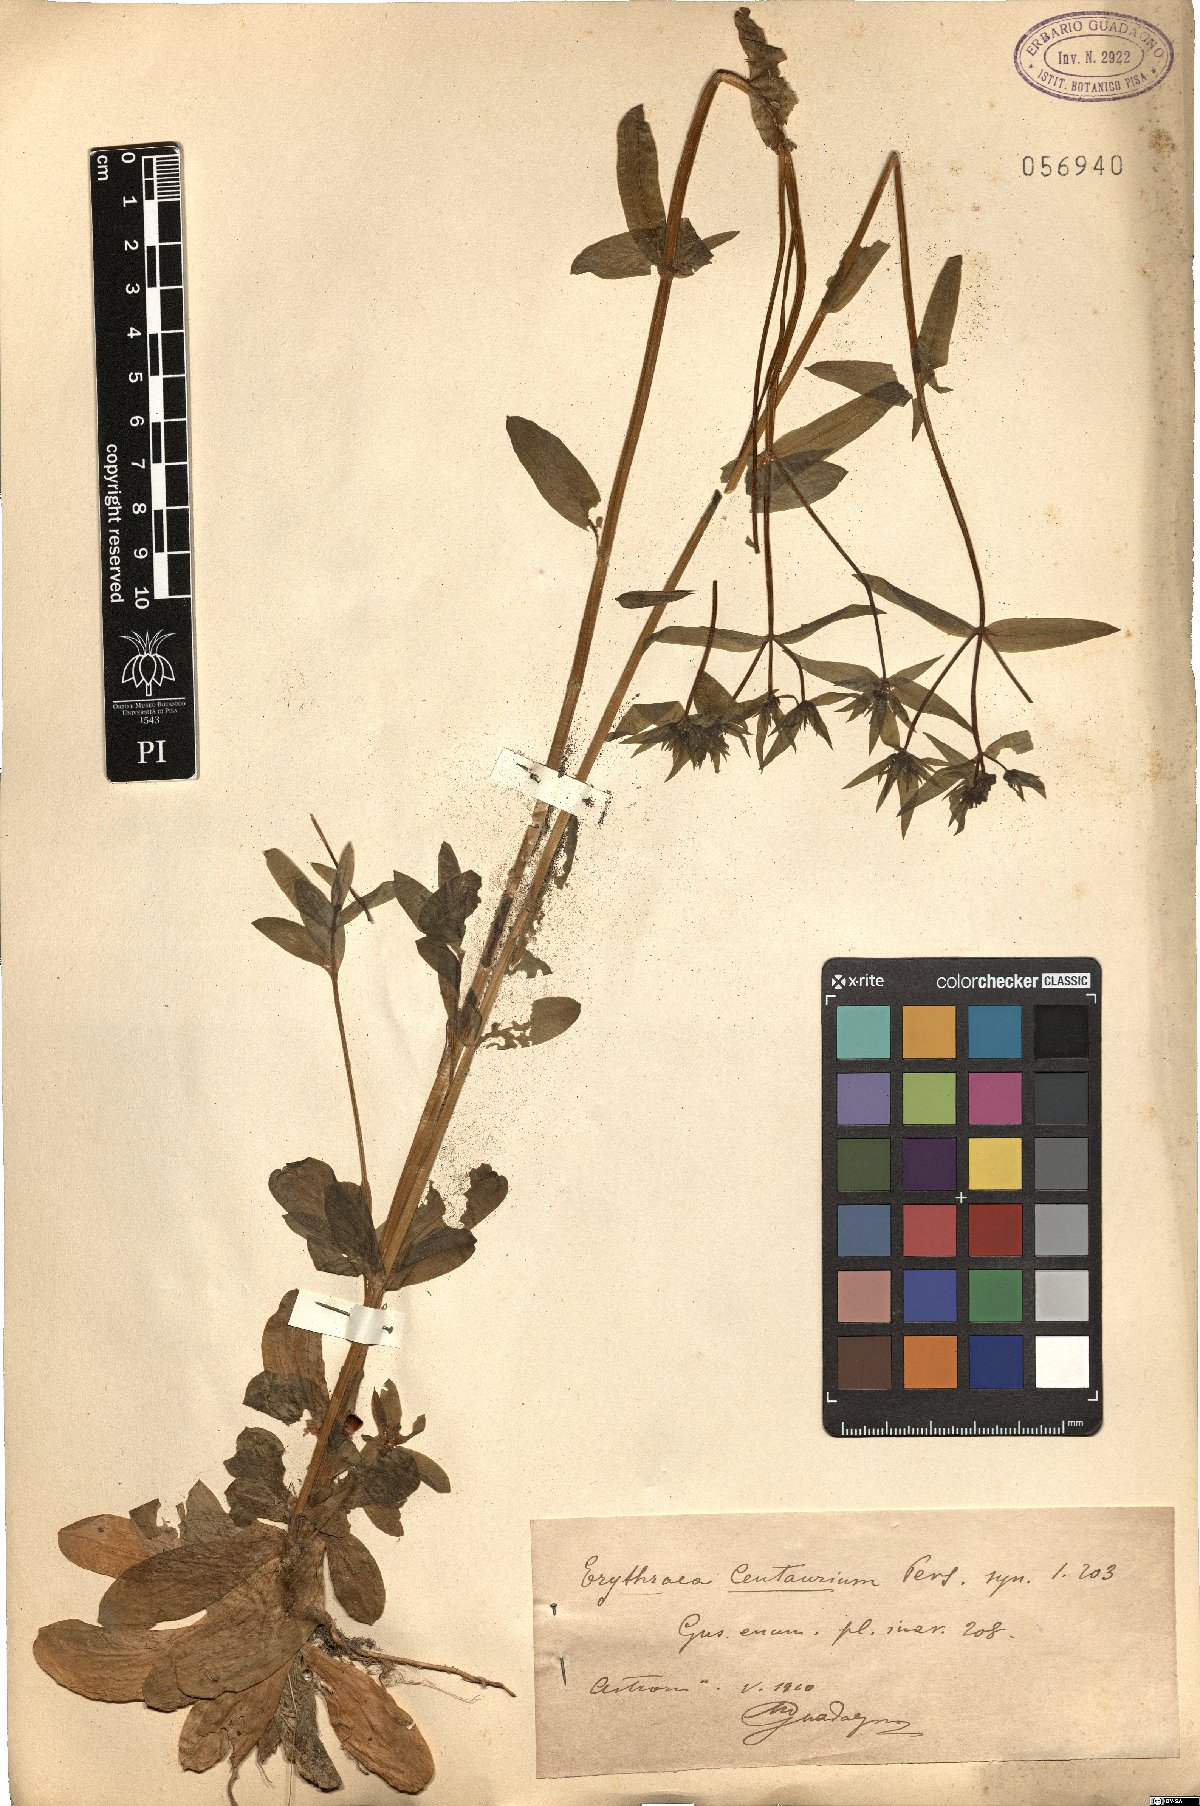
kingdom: Plantae
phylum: Tracheophyta
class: Magnoliopsida
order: Gentianales
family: Gentianaceae
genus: Centaurium
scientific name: Centaurium erythraea
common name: Common centaury
